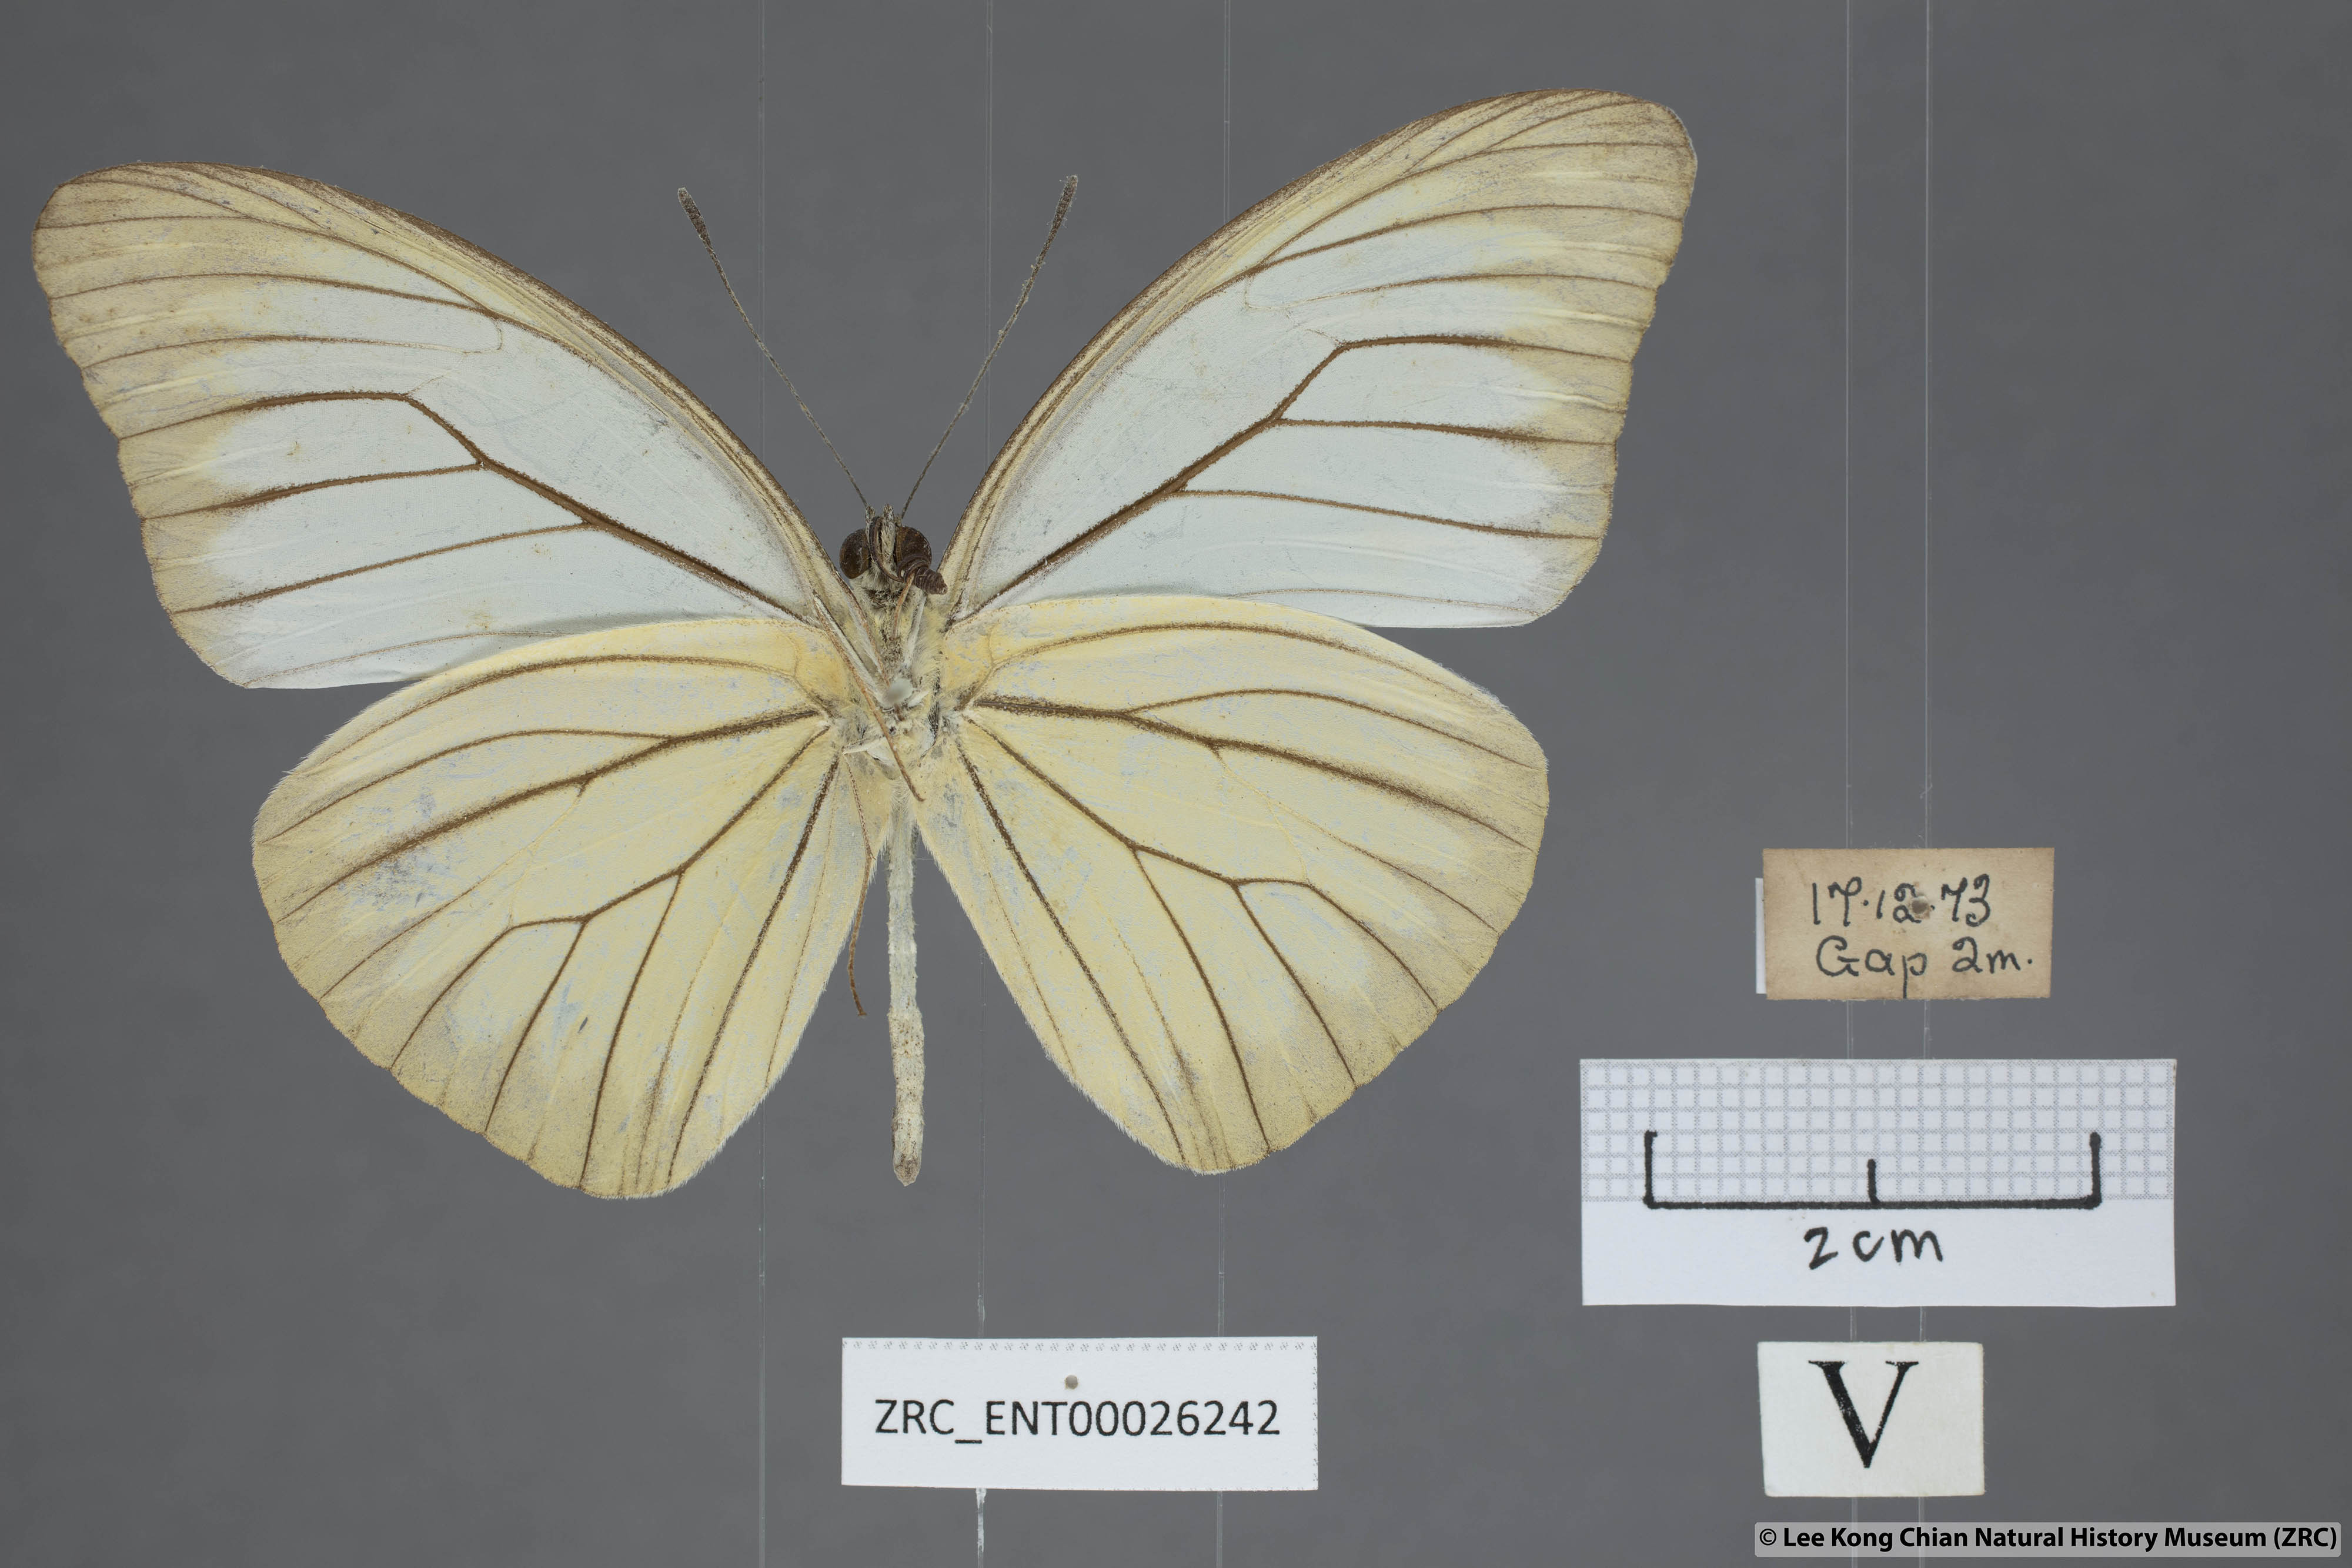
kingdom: Animalia
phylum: Arthropoda
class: Insecta
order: Lepidoptera
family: Pieridae
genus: Pareronia
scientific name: Pareronia valeria
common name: Common wanderer?
